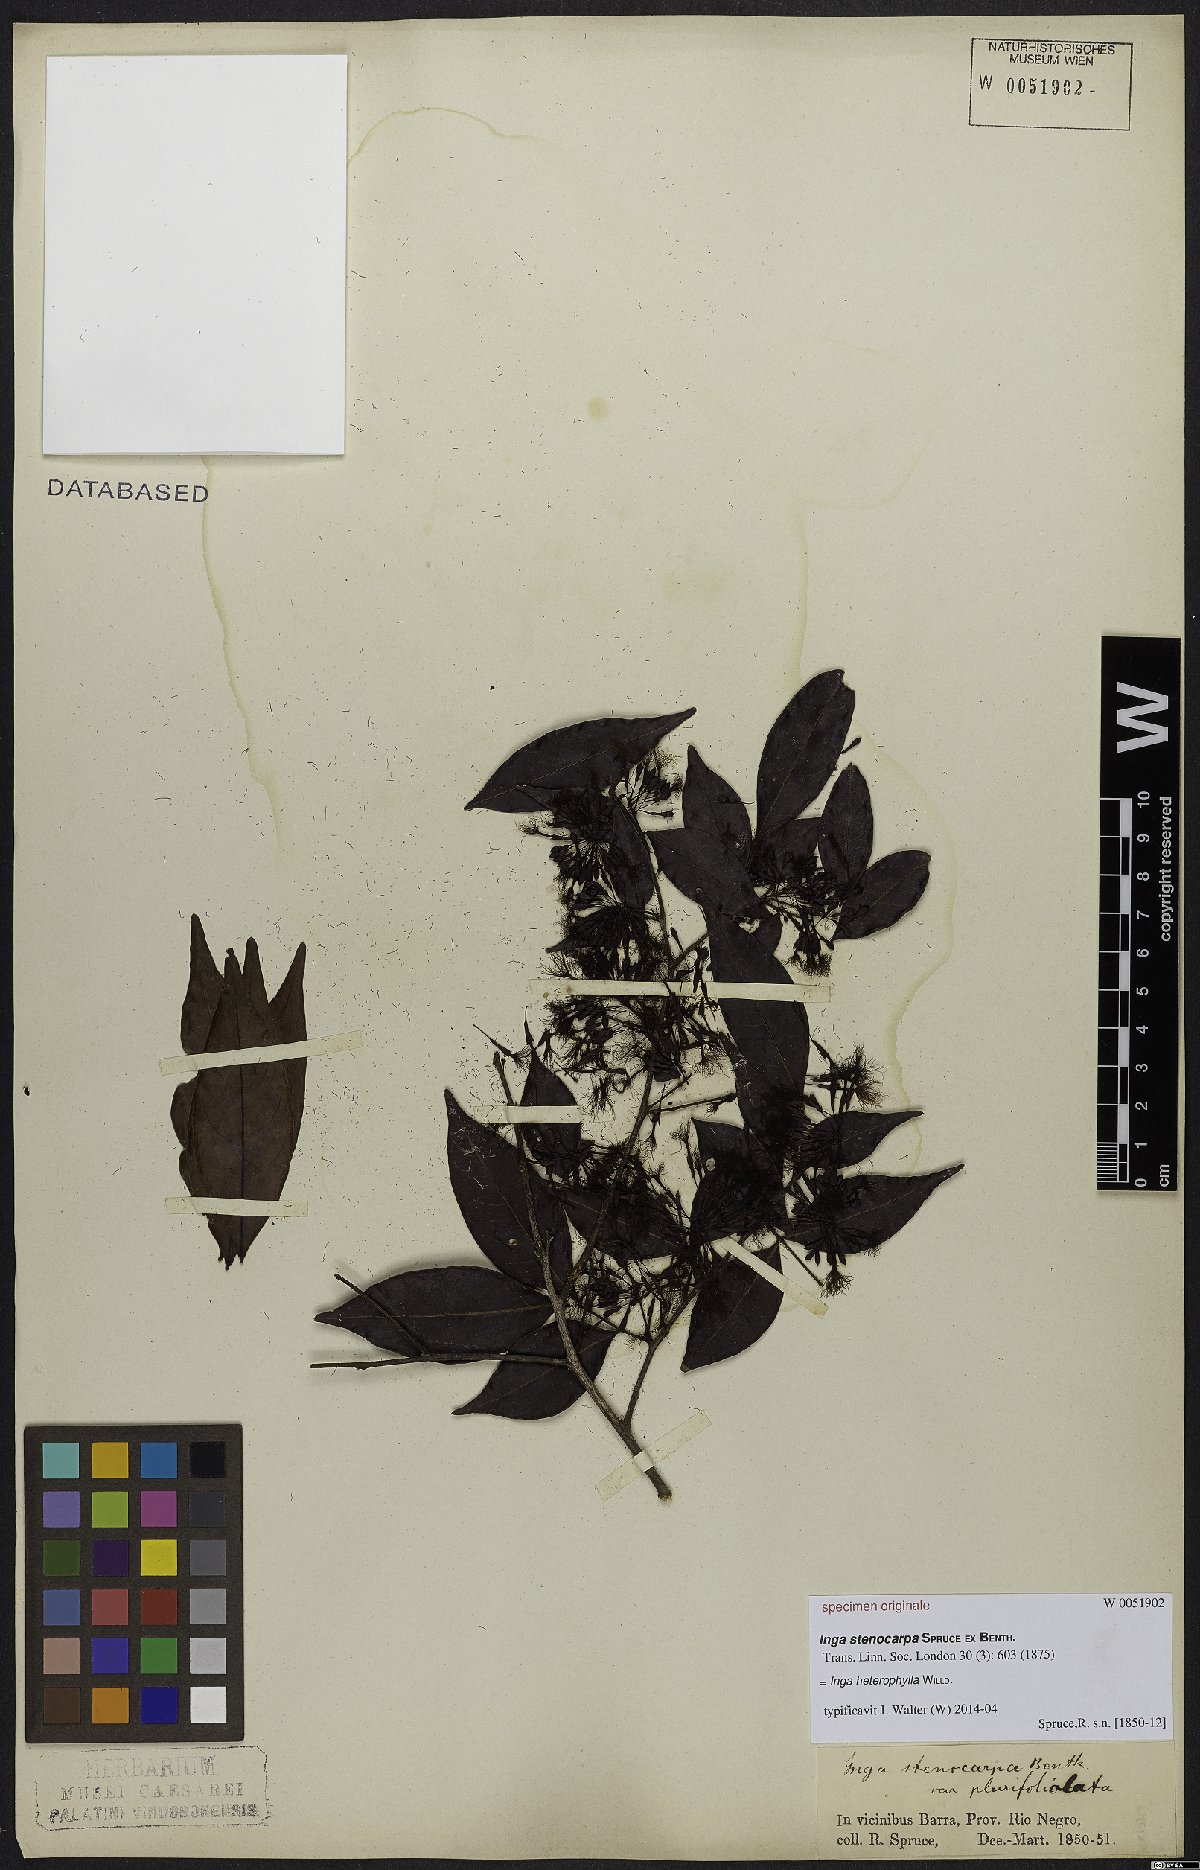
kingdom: Plantae
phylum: Tracheophyta
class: Magnoliopsida
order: Fabales
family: Fabaceae
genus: Inga
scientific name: Inga heterophylla
